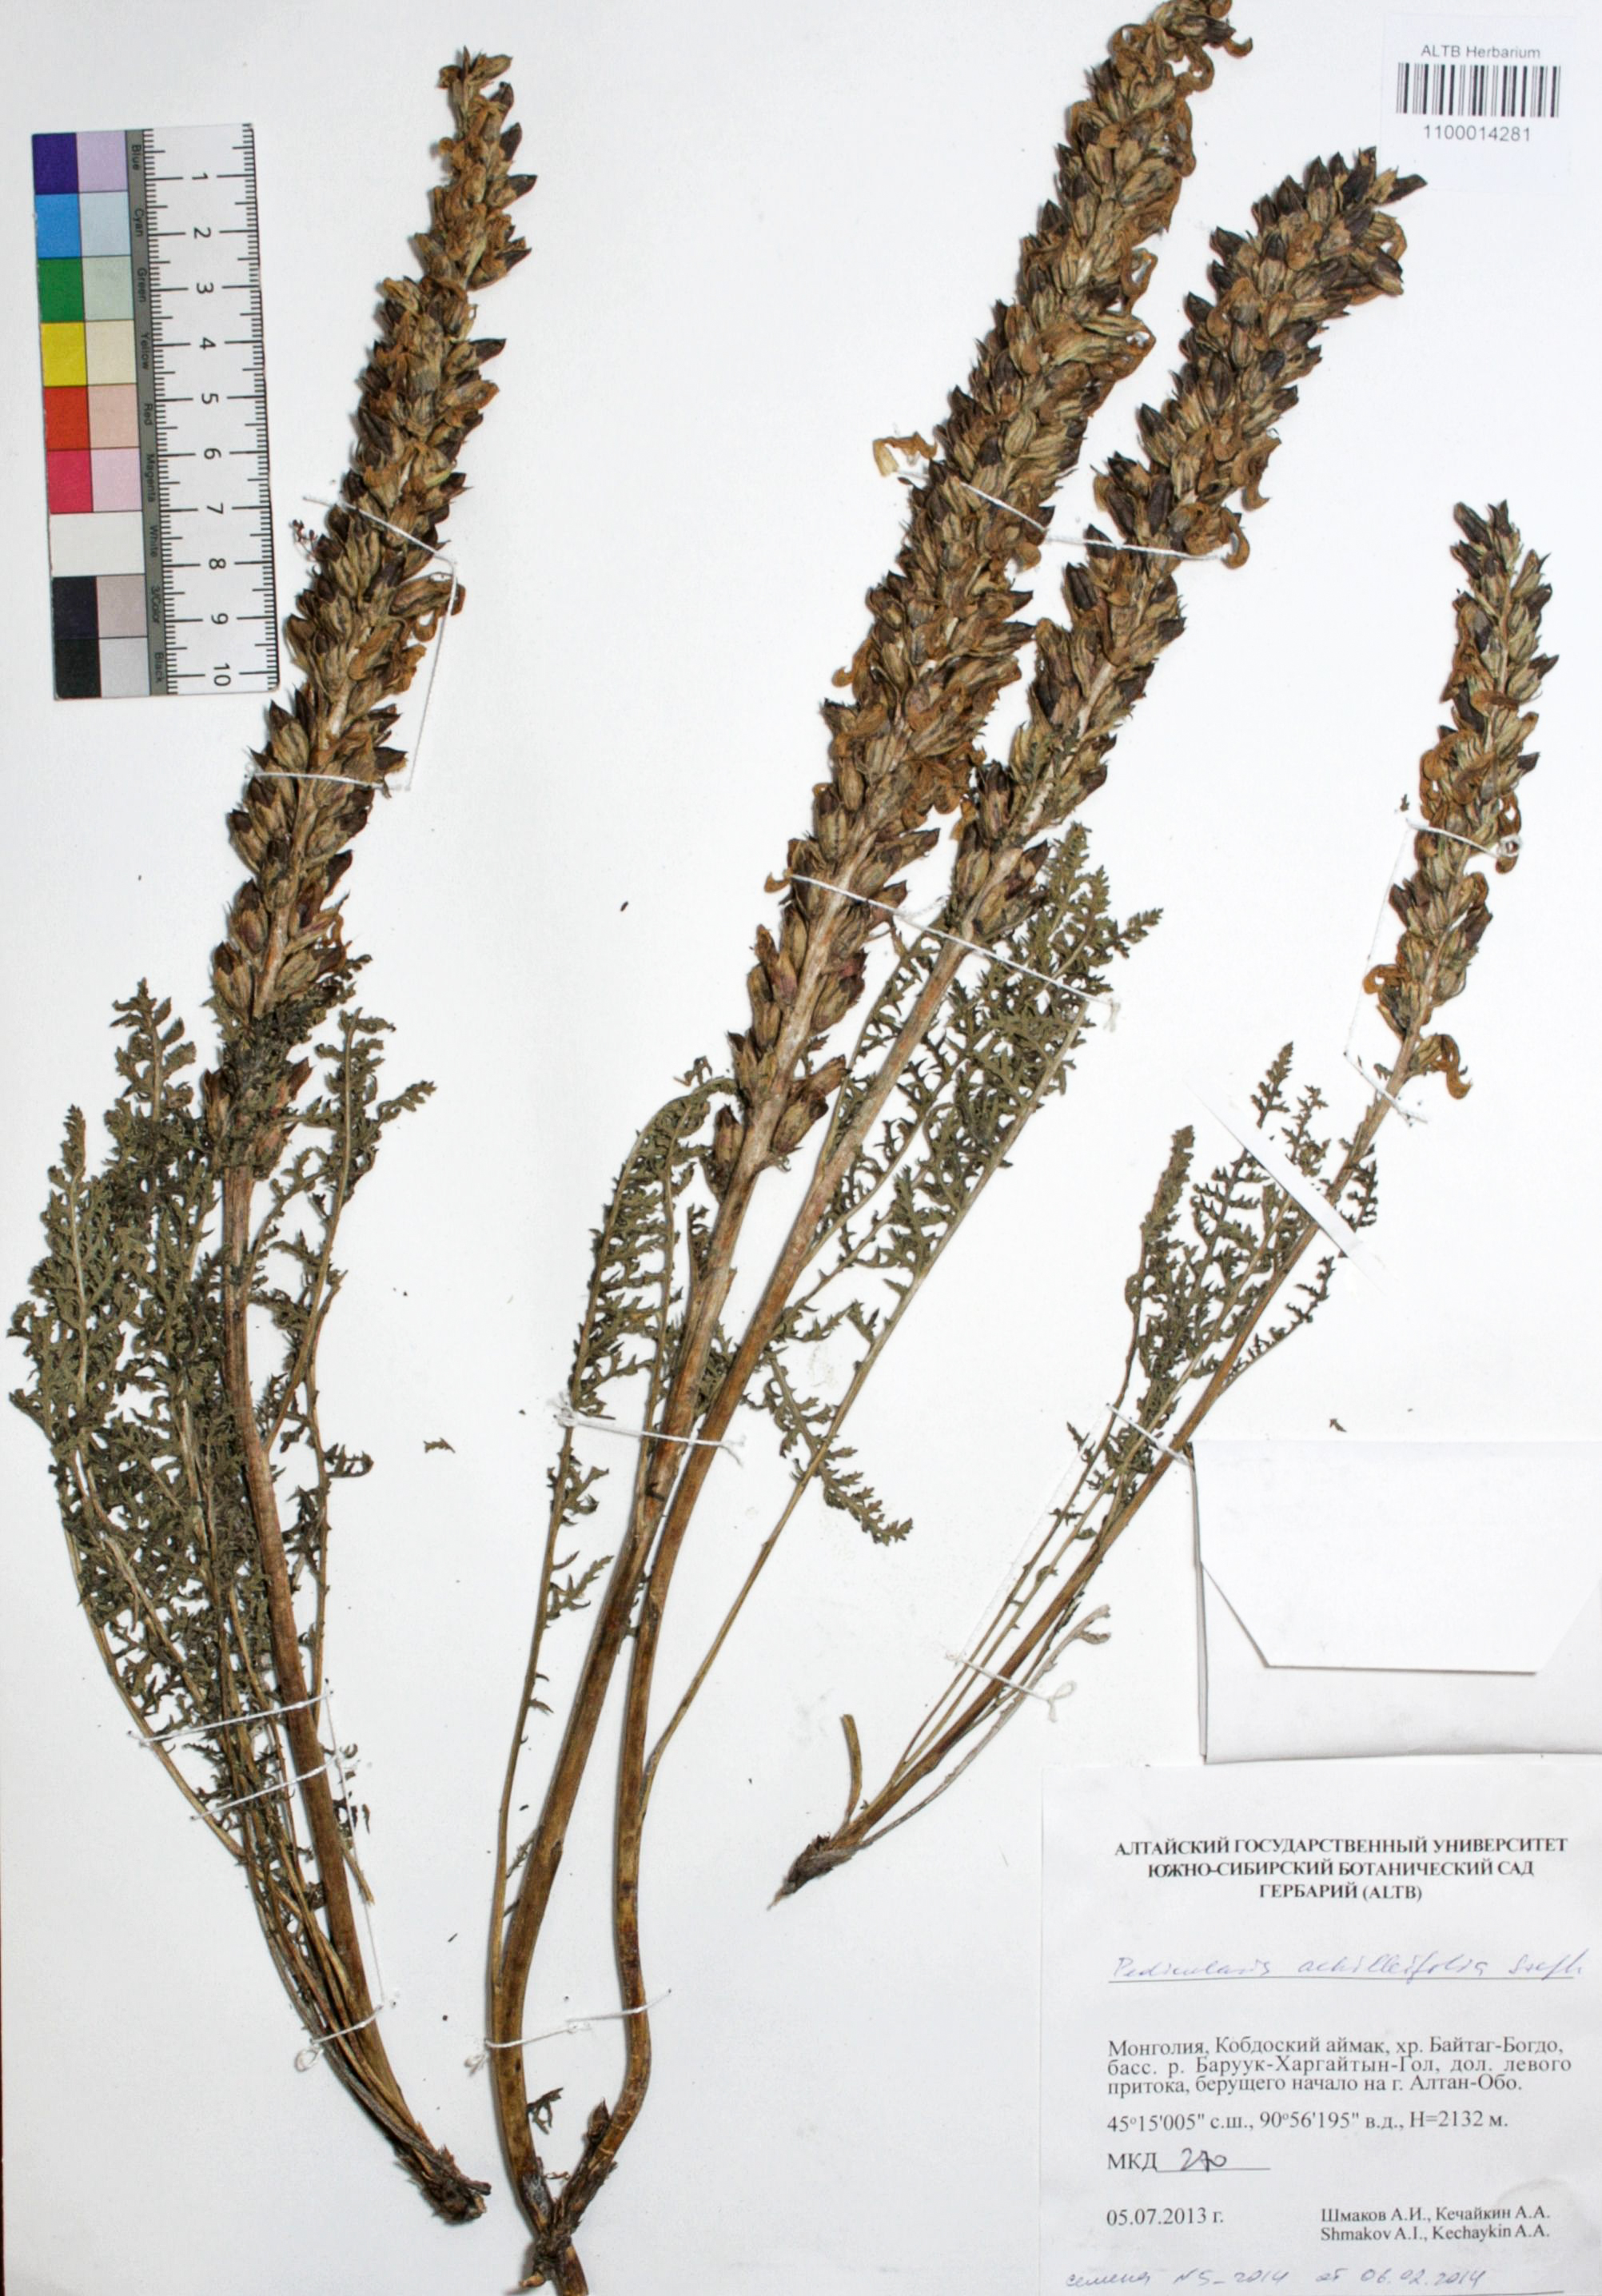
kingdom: Plantae
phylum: Tracheophyta
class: Magnoliopsida
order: Lamiales
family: Orobanchaceae
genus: Pedicularis
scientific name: Pedicularis achilleifolia
